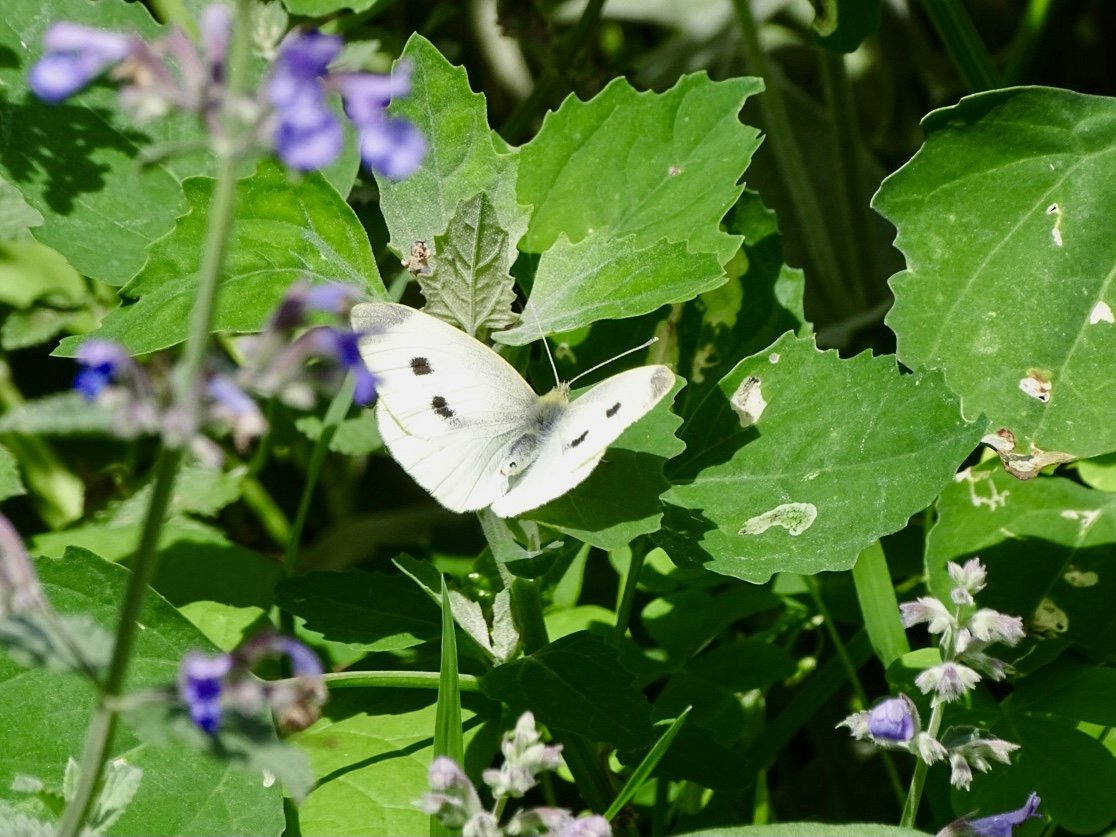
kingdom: Animalia
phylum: Arthropoda
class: Insecta
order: Lepidoptera
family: Pieridae
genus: Pieris
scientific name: Pieris rapae
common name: Cabbage White
